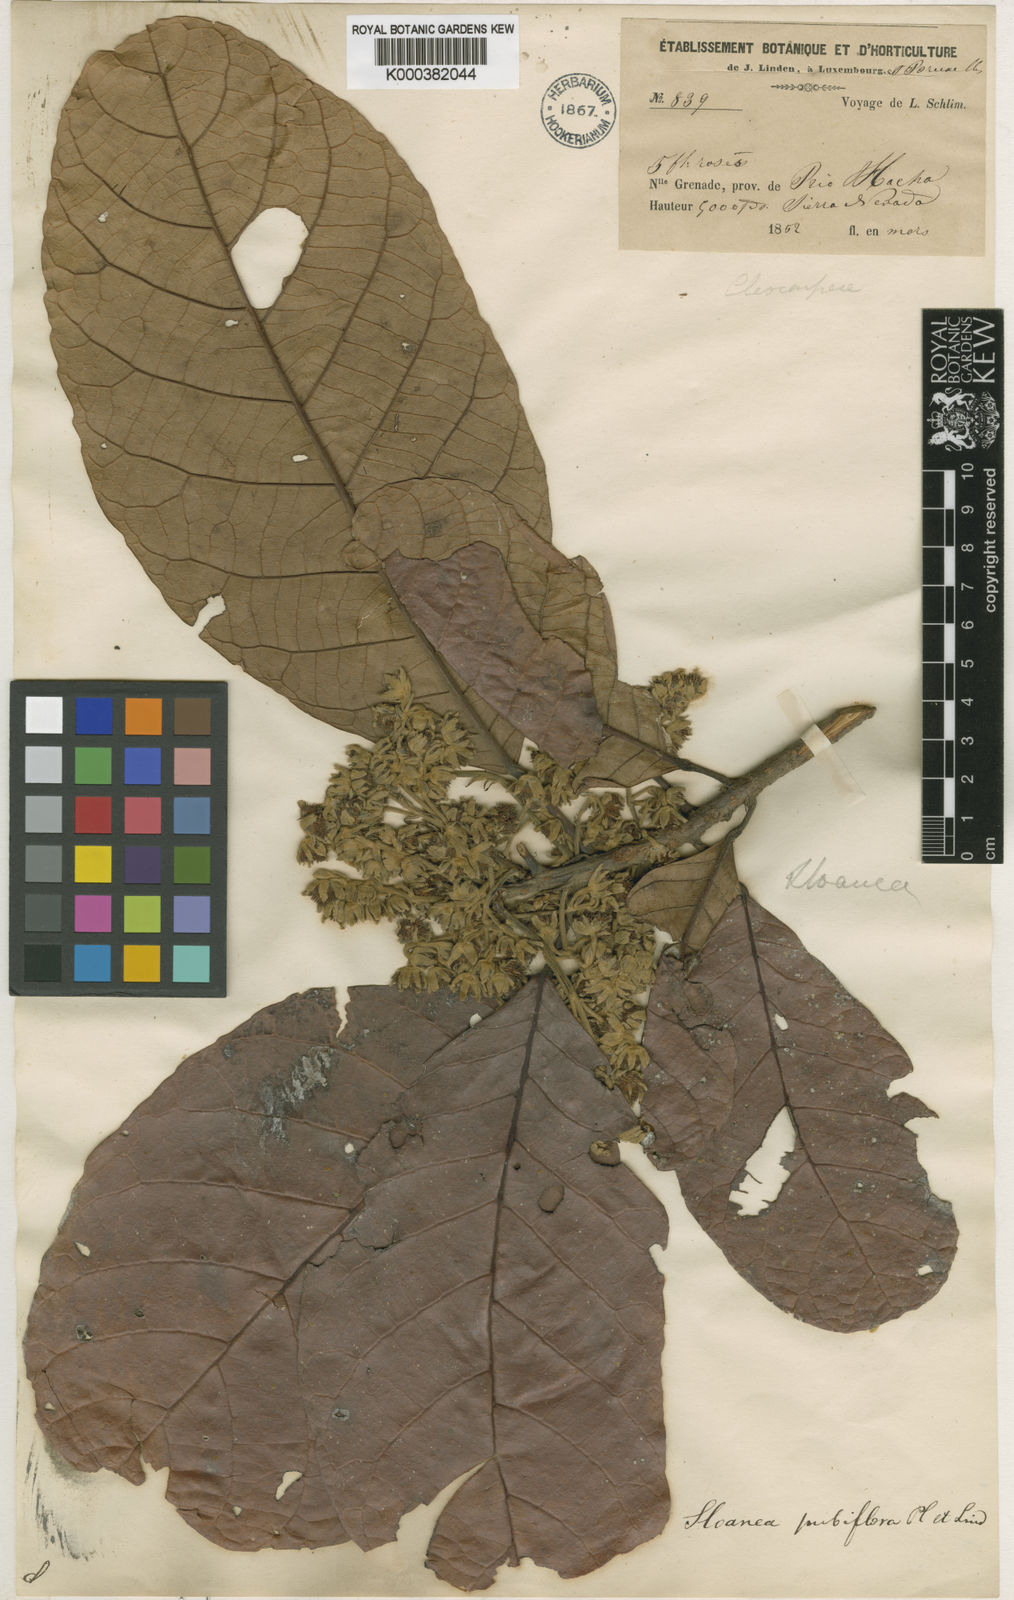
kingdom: Plantae
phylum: Tracheophyta
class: Magnoliopsida
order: Oxalidales
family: Elaeocarpaceae
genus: Sloanea
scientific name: Sloanea pubiflora
